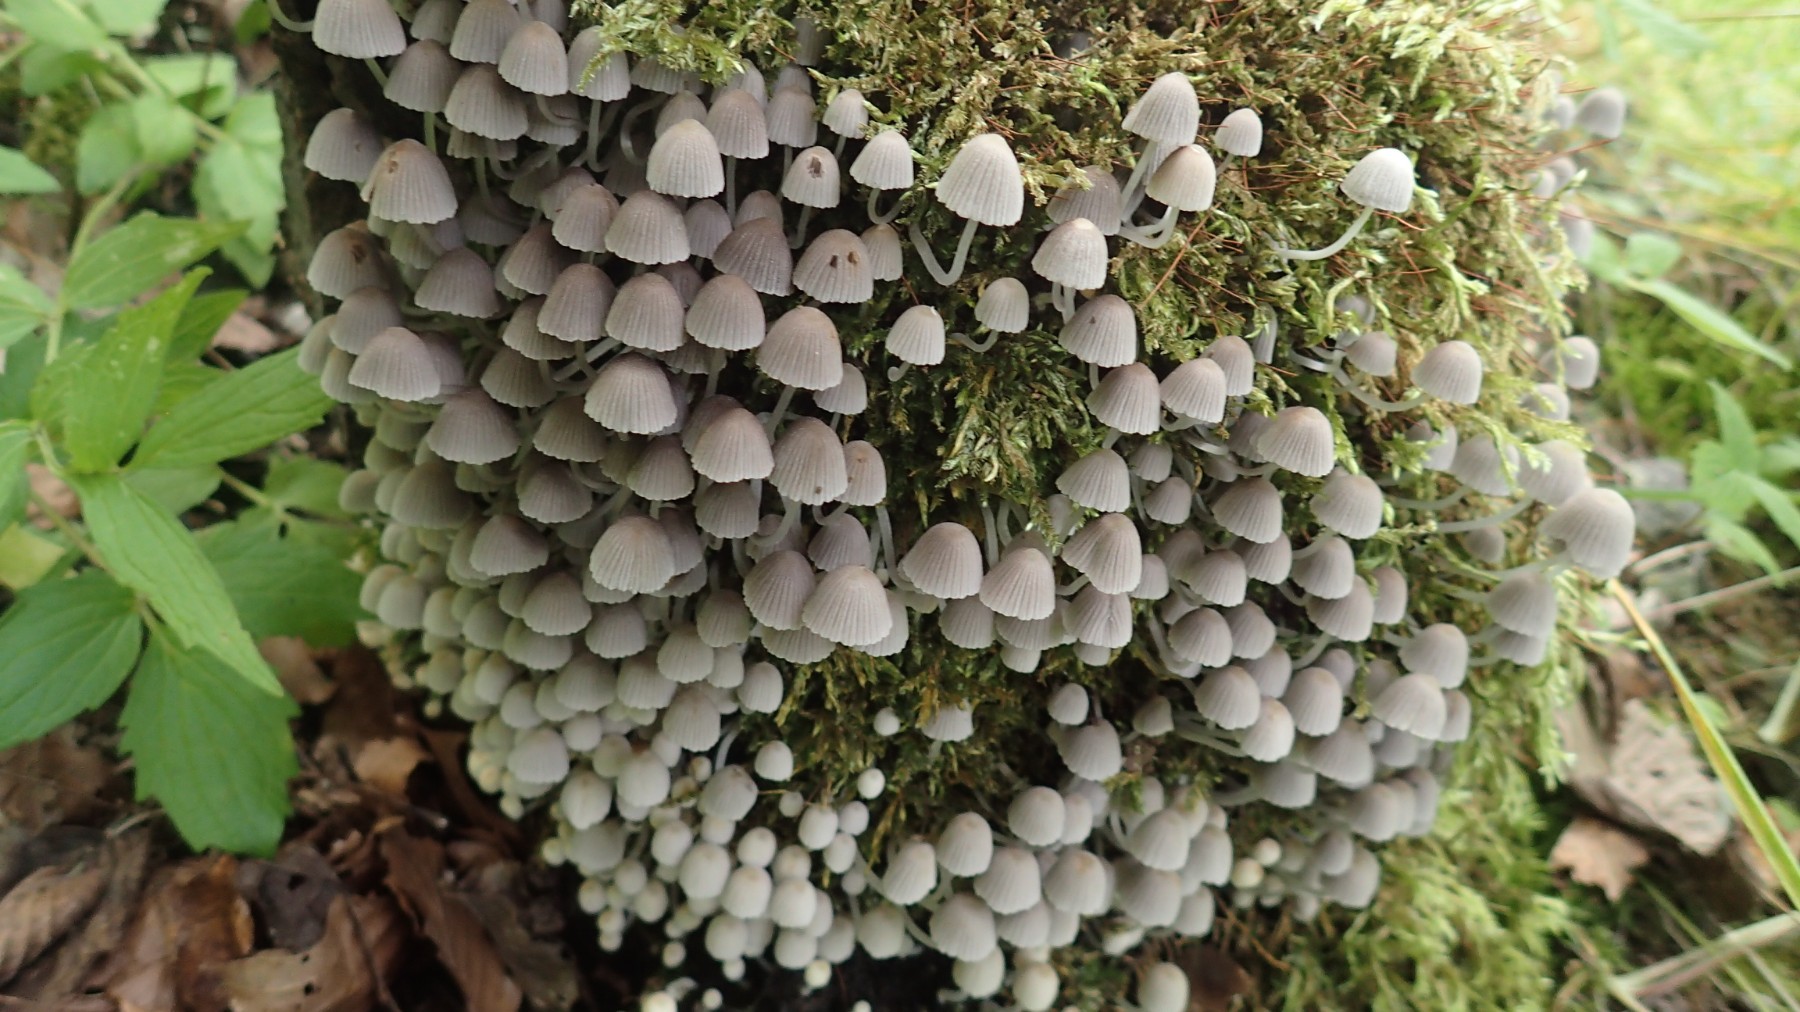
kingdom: Fungi
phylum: Basidiomycota
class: Agaricomycetes
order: Agaricales
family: Psathyrellaceae
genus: Coprinellus
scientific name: Coprinellus disseminatus
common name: bredsået blækhat
